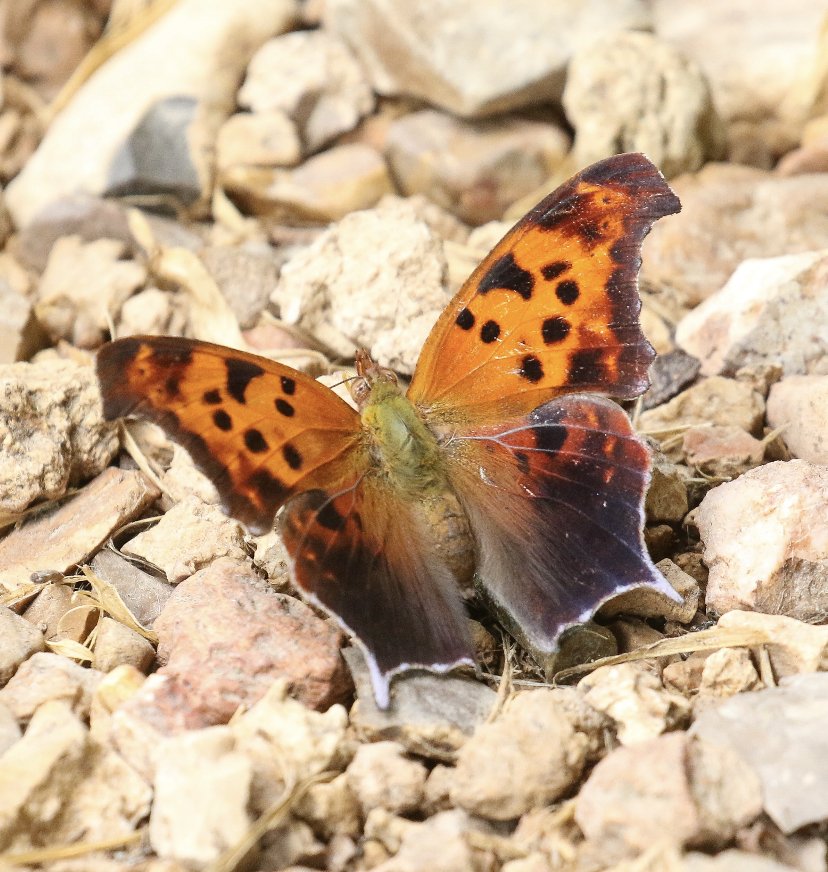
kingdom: Animalia
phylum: Arthropoda
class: Insecta
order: Lepidoptera
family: Nymphalidae
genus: Polygonia
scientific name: Polygonia interrogationis
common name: Question Mark
